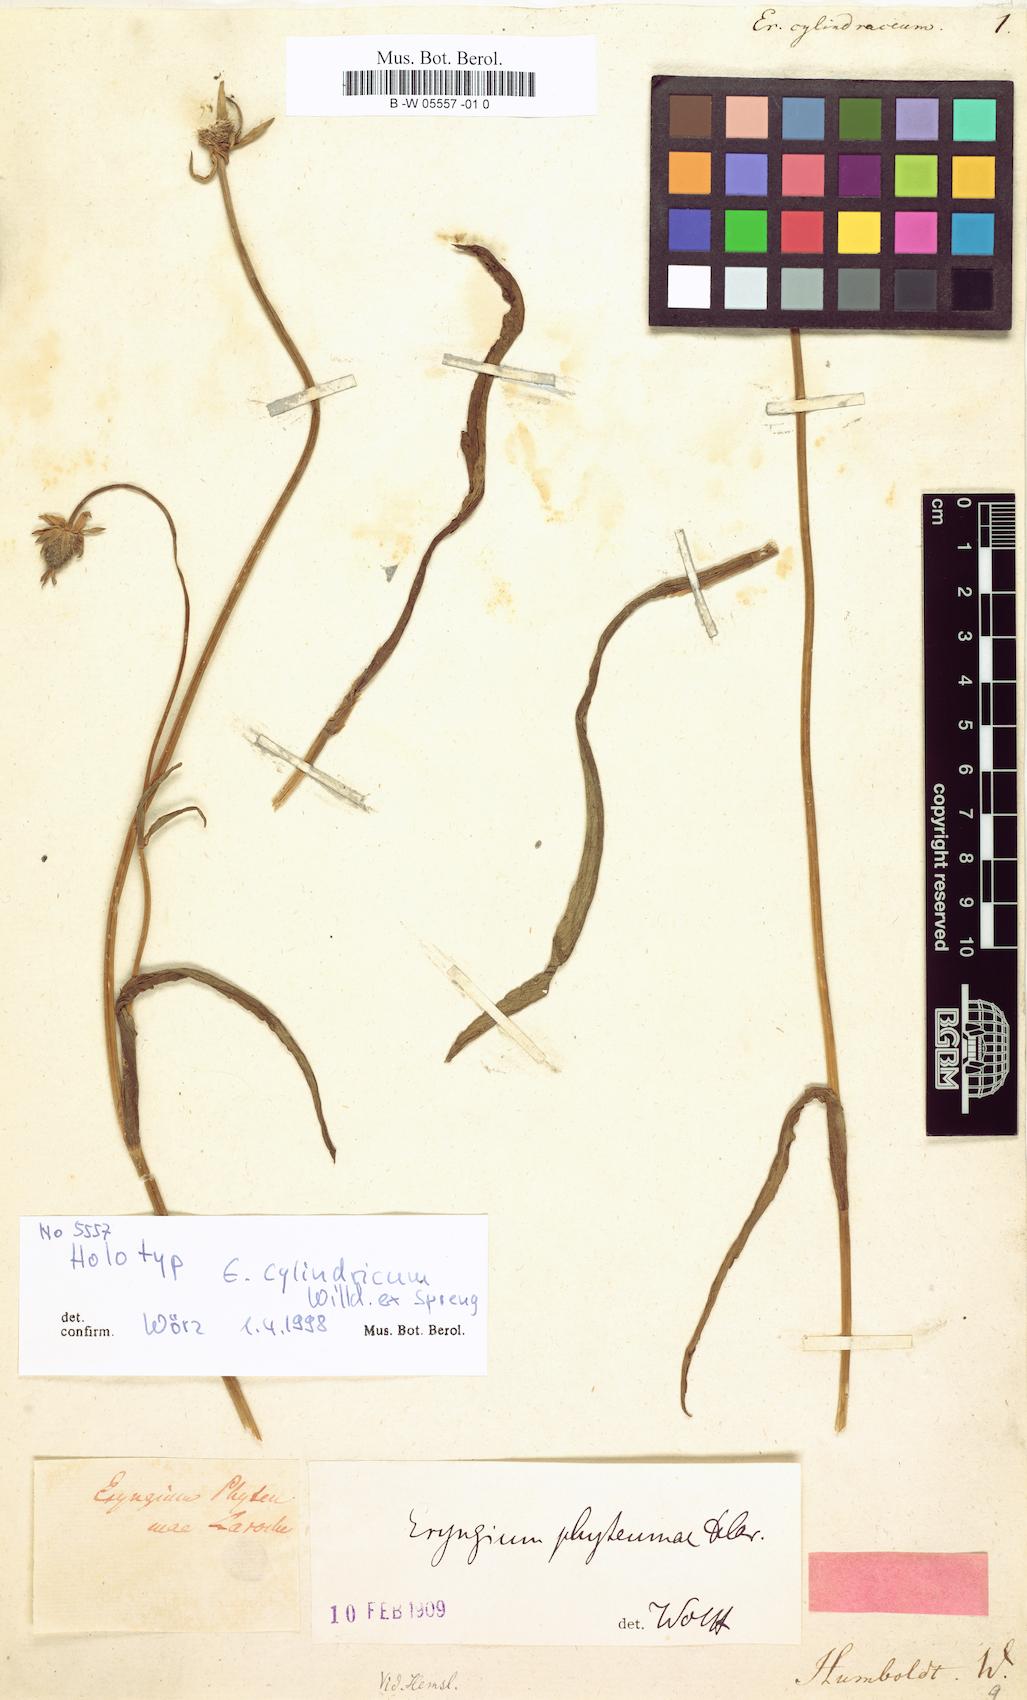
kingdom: Plantae
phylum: Tracheophyta
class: Magnoliopsida
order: Apiales
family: Apiaceae
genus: Eryngium
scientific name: Eryngium phyteumae
